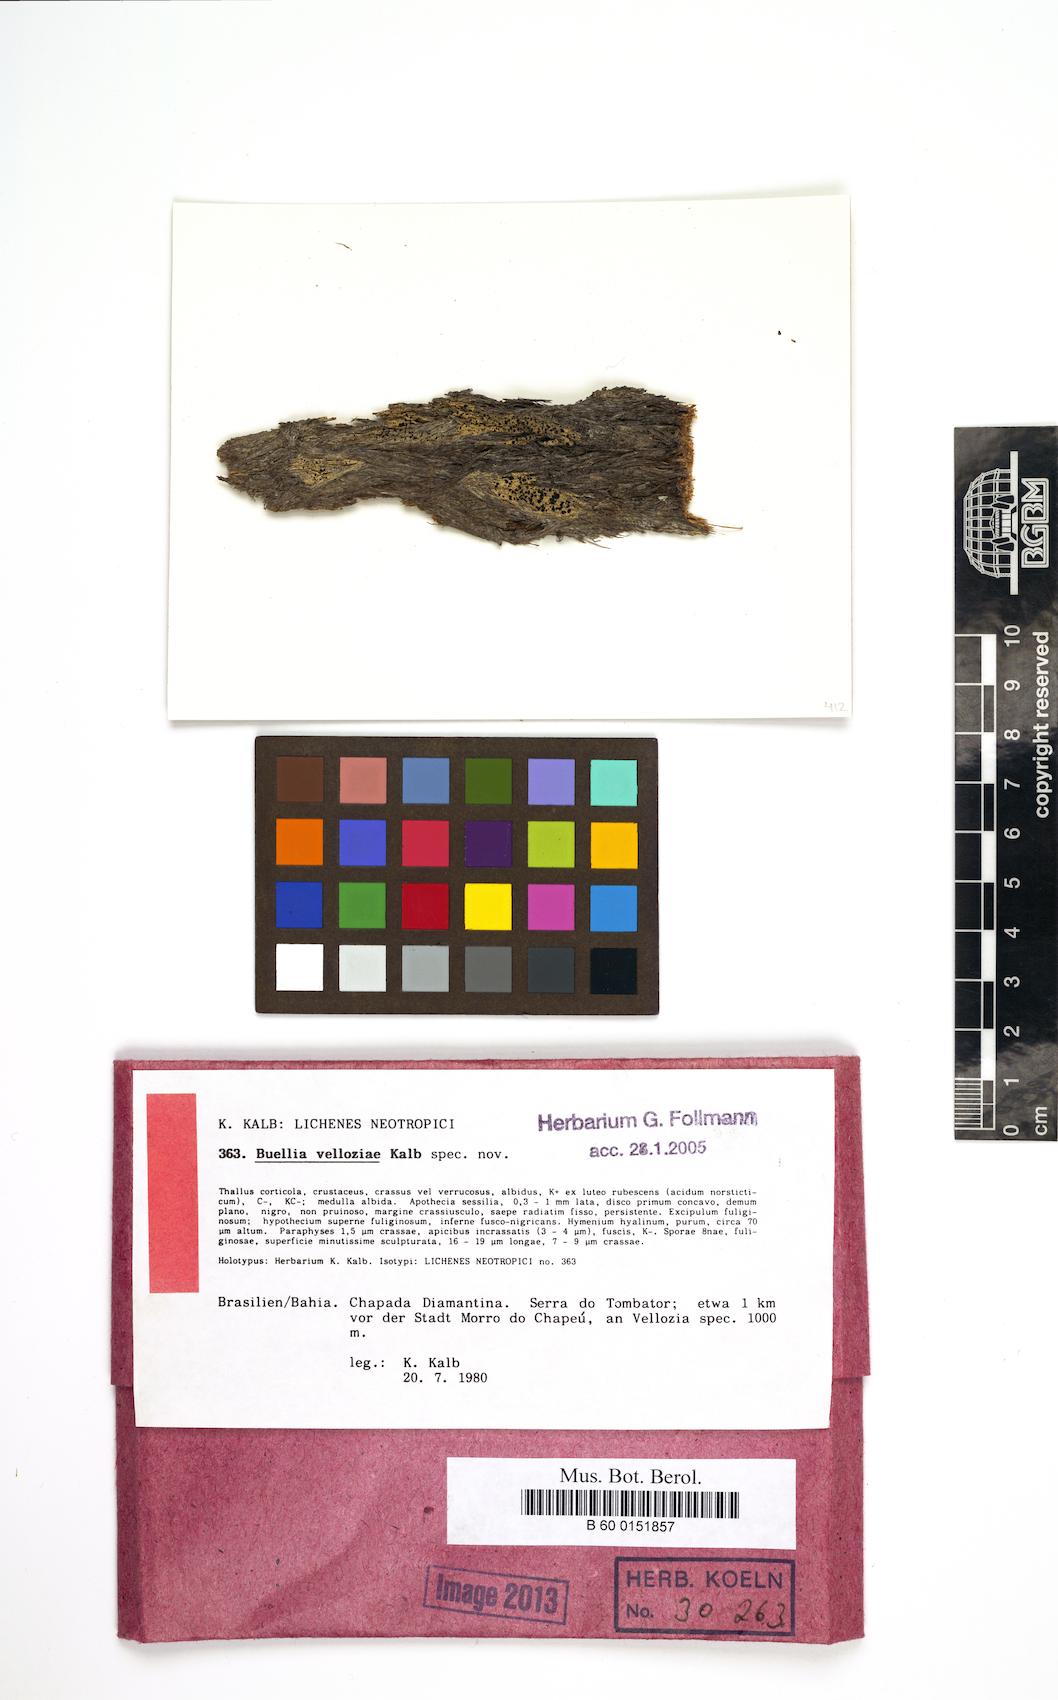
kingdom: Fungi
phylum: Ascomycota
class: Lecanoromycetes
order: Caliciales
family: Caliciaceae
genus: Hypoflavia
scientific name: Hypoflavia velloziae
